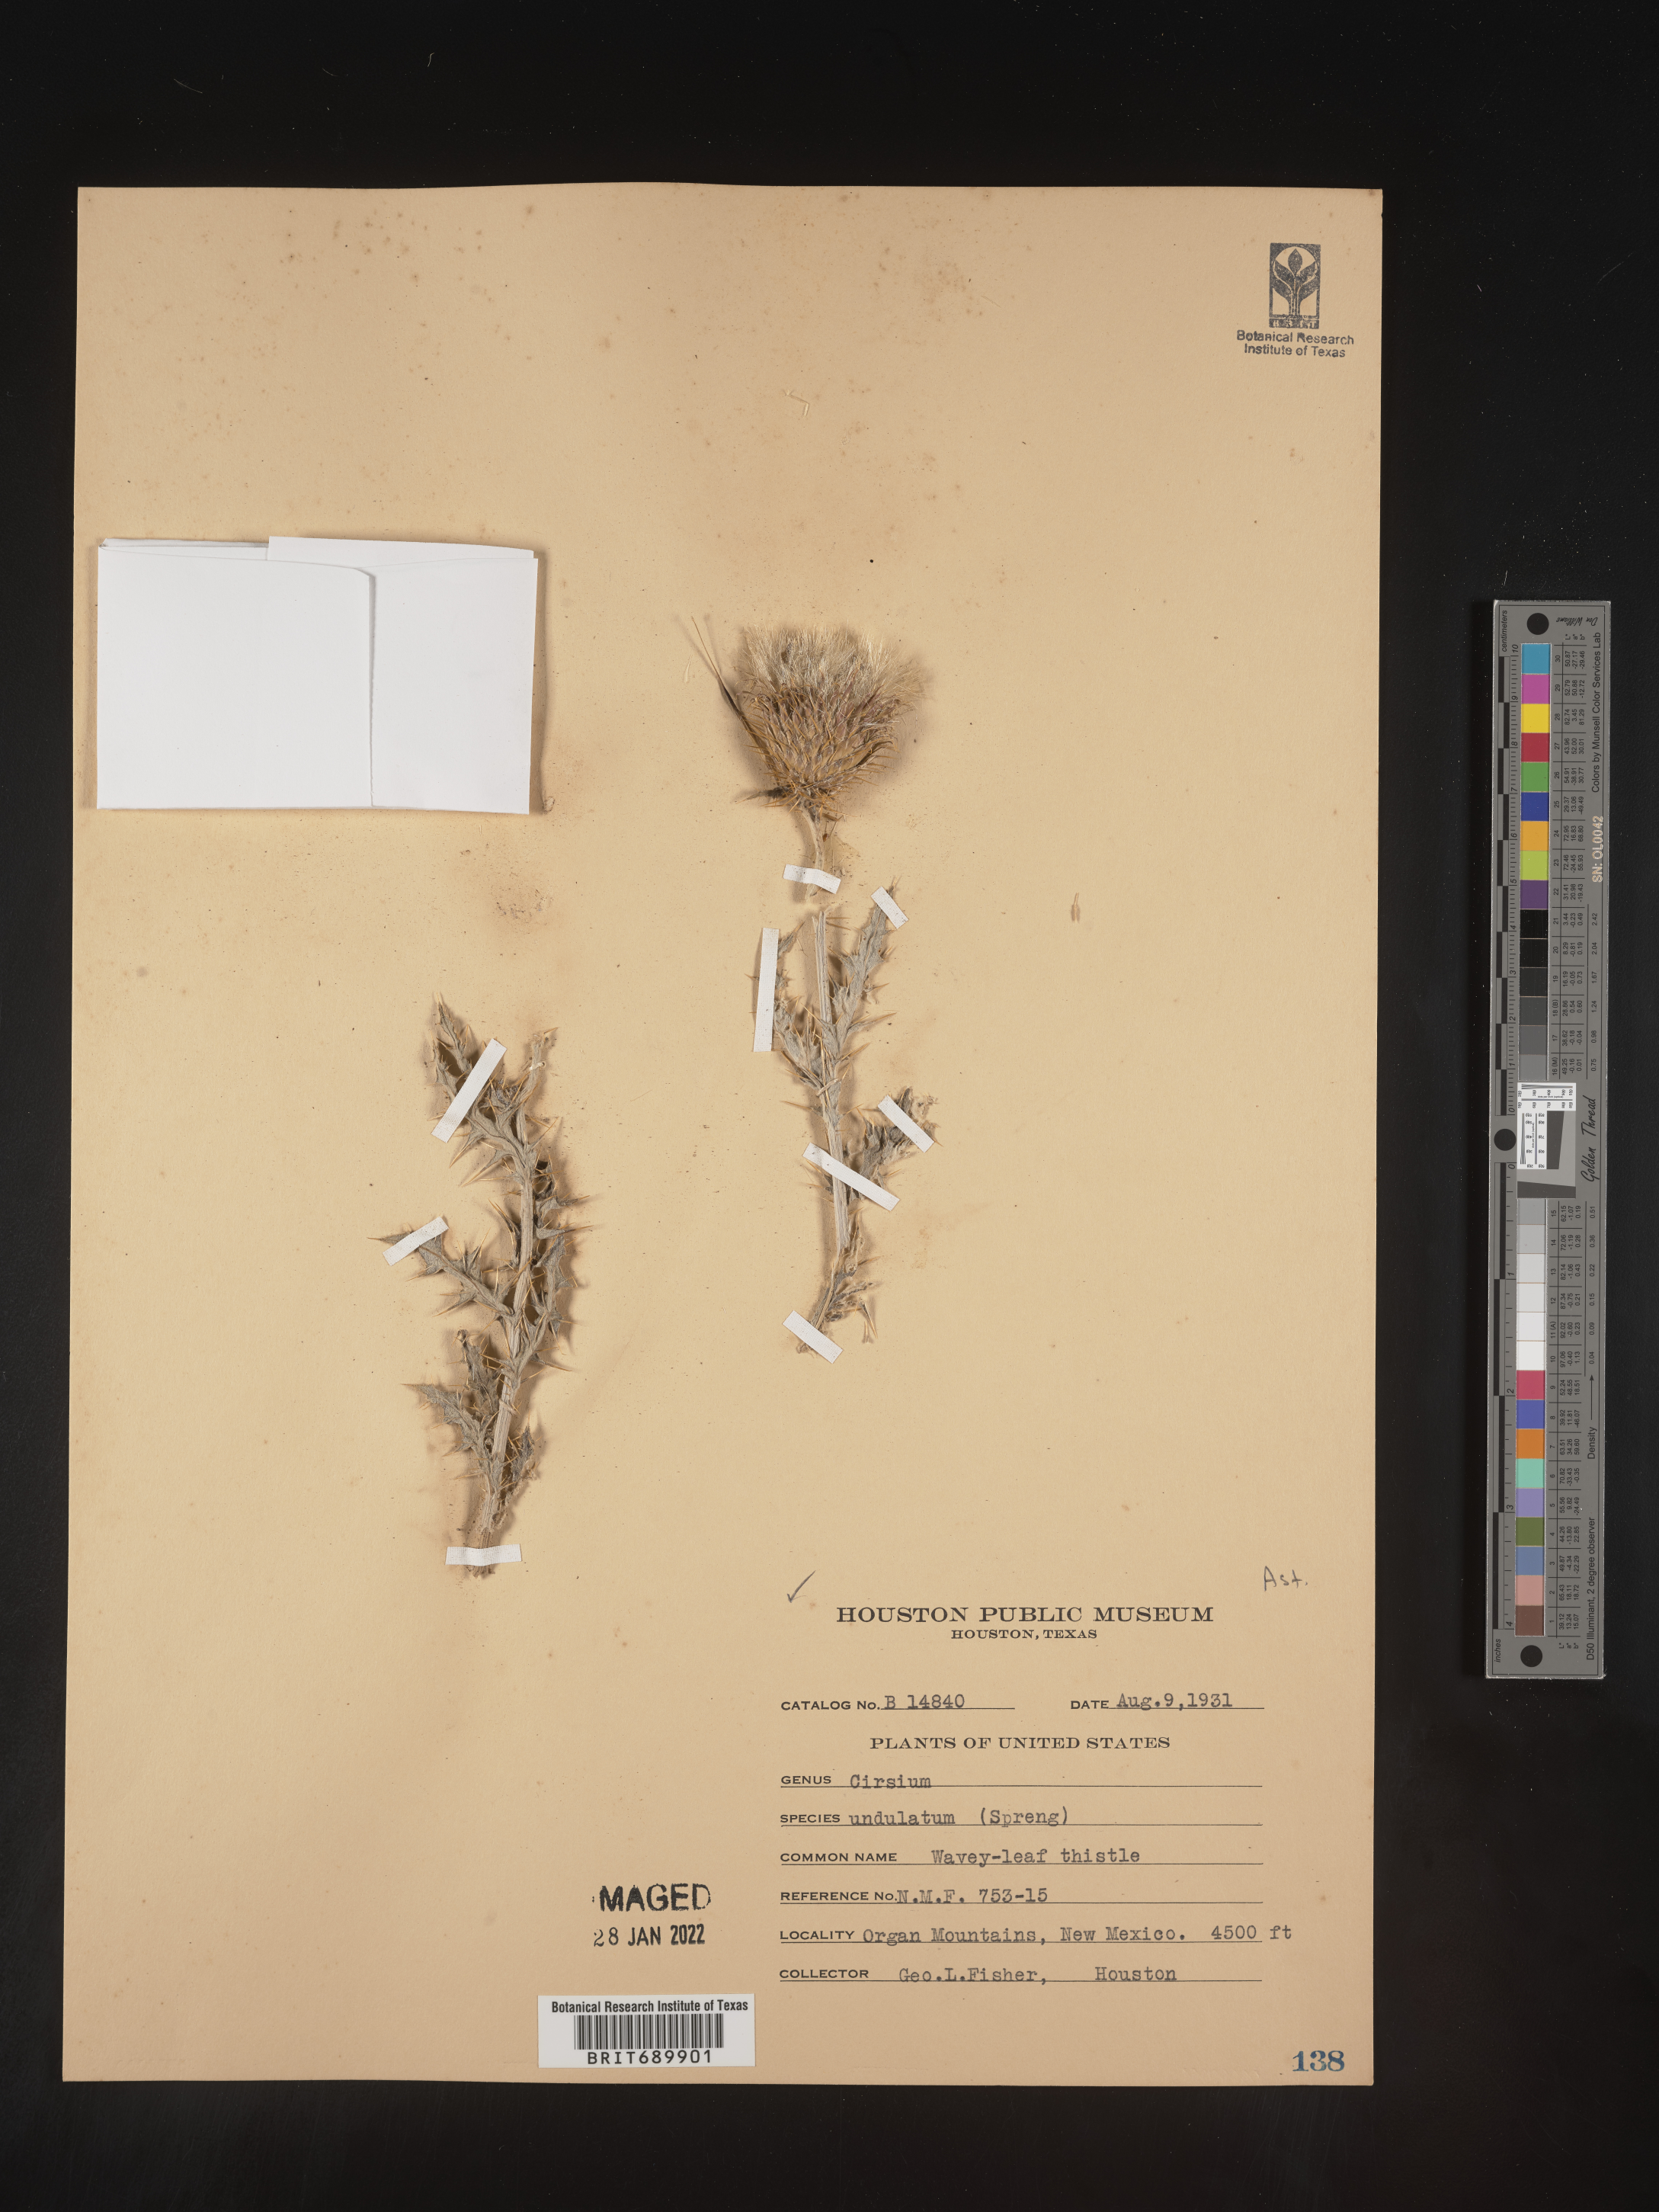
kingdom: Plantae
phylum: Tracheophyta
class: Magnoliopsida
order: Asterales
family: Asteraceae
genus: Cirsium
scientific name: Cirsium undulatum
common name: Pasture thistle
